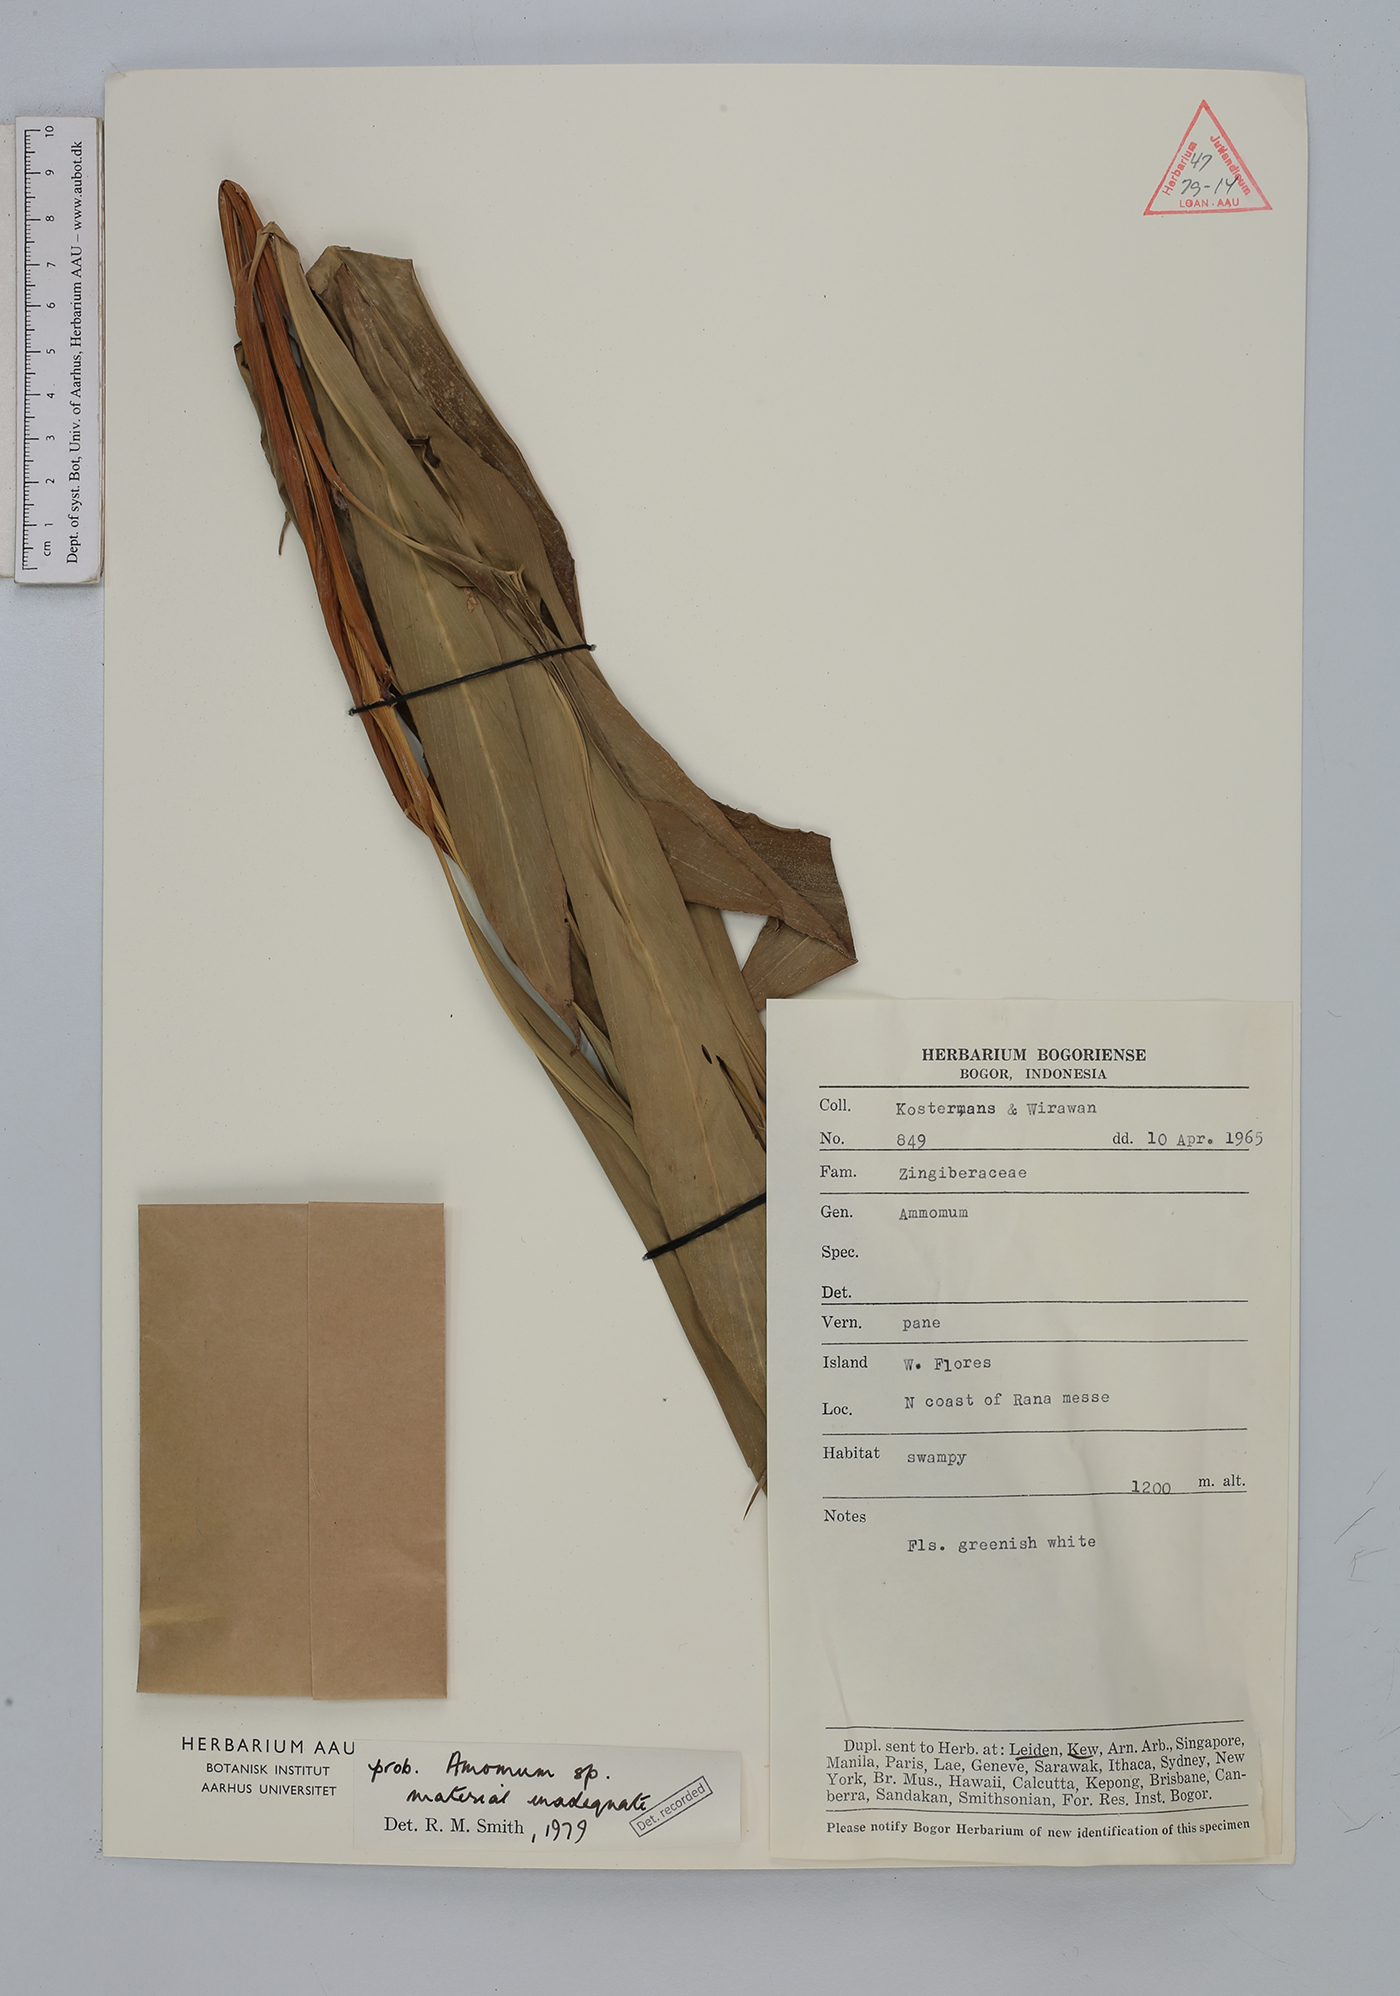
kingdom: Plantae
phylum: Tracheophyta
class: Liliopsida
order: Zingiberales
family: Zingiberaceae
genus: Amomum
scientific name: Amomum
